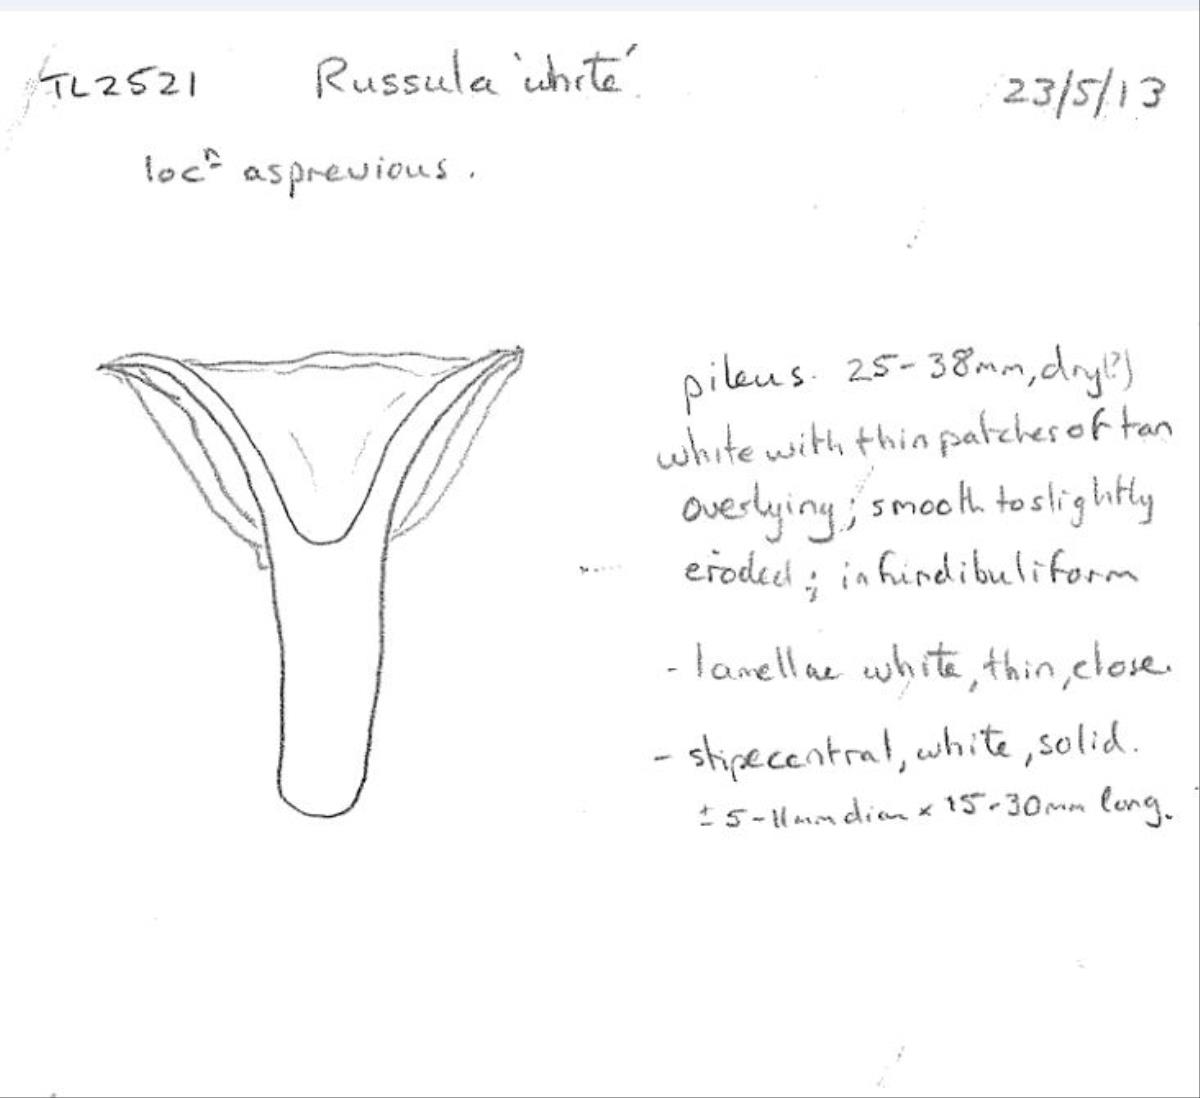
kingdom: Fungi
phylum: Basidiomycota
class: Agaricomycetes
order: Russulales
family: Russulaceae
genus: Russula
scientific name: Russula
